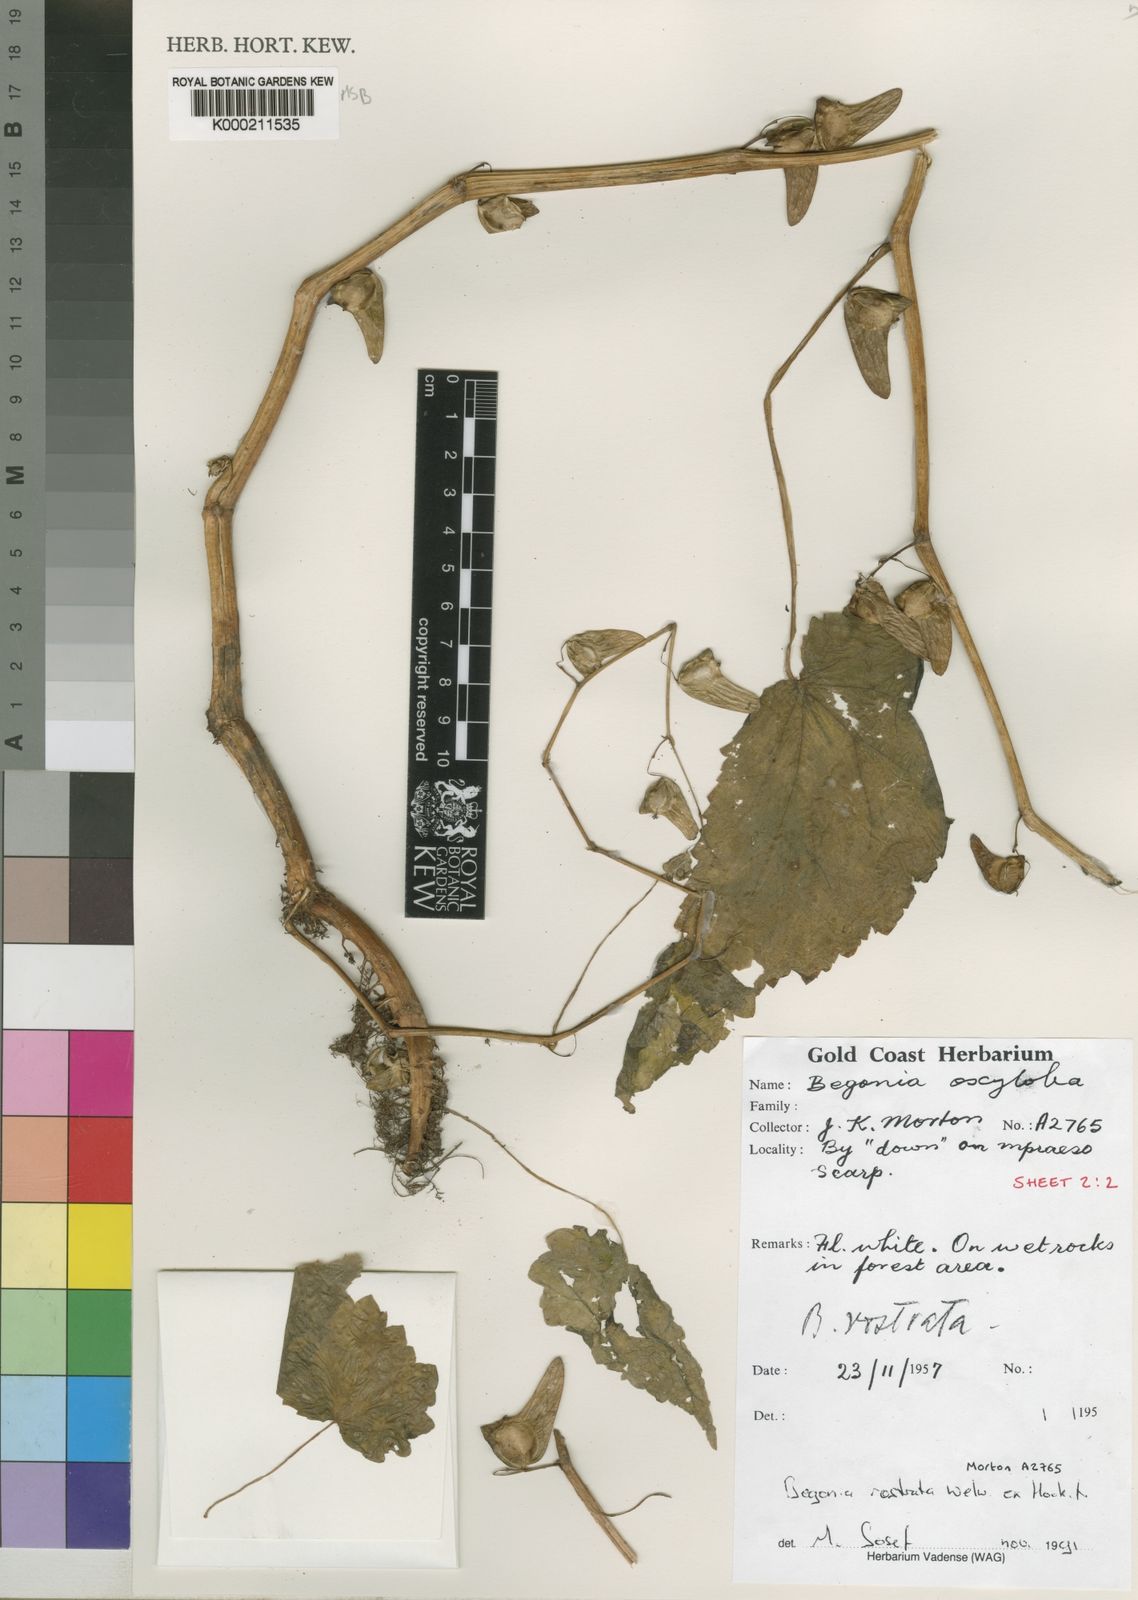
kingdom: Plantae
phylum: Tracheophyta
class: Magnoliopsida
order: Cucurbitales
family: Begoniaceae
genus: Begonia
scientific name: Begonia rostrata
